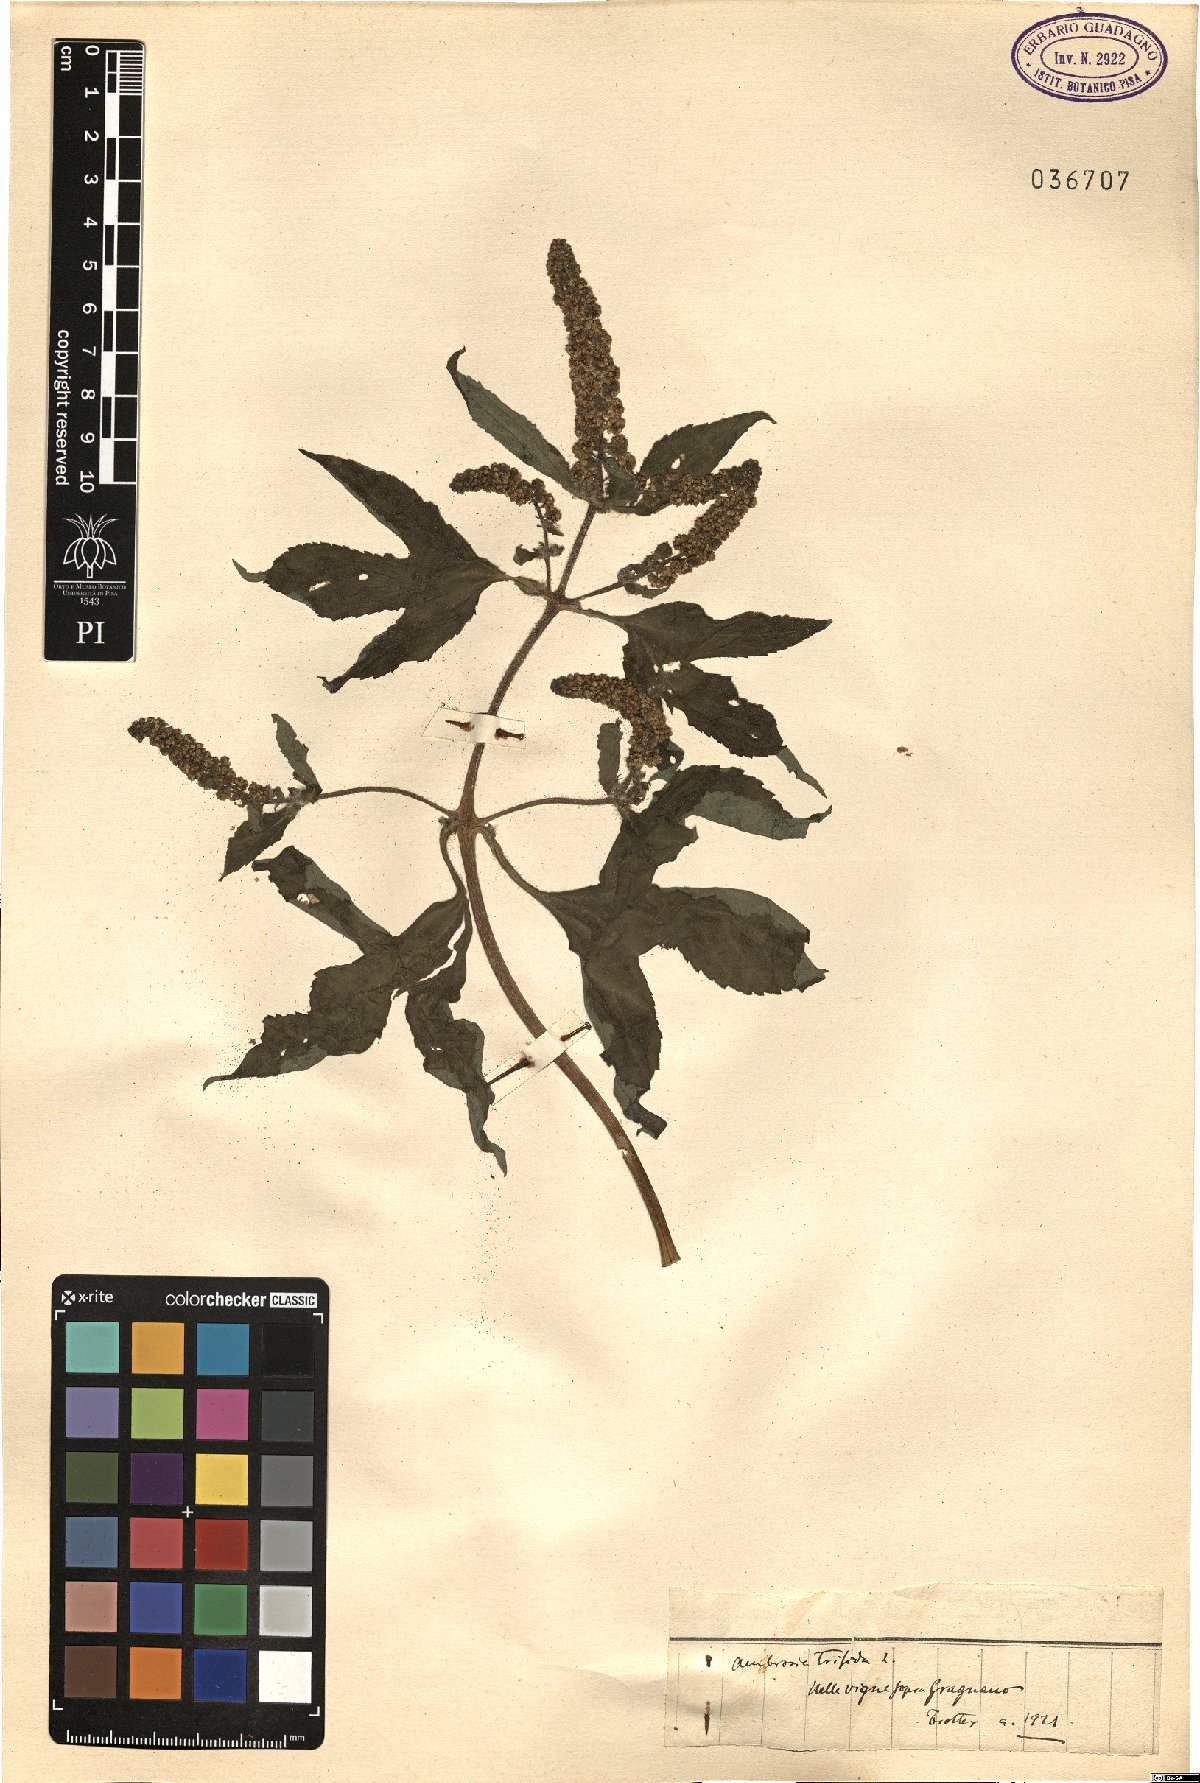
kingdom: Plantae
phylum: Tracheophyta
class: Magnoliopsida
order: Asterales
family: Asteraceae
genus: Ambrosia
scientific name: Ambrosia trifida
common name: Giant ragweed
